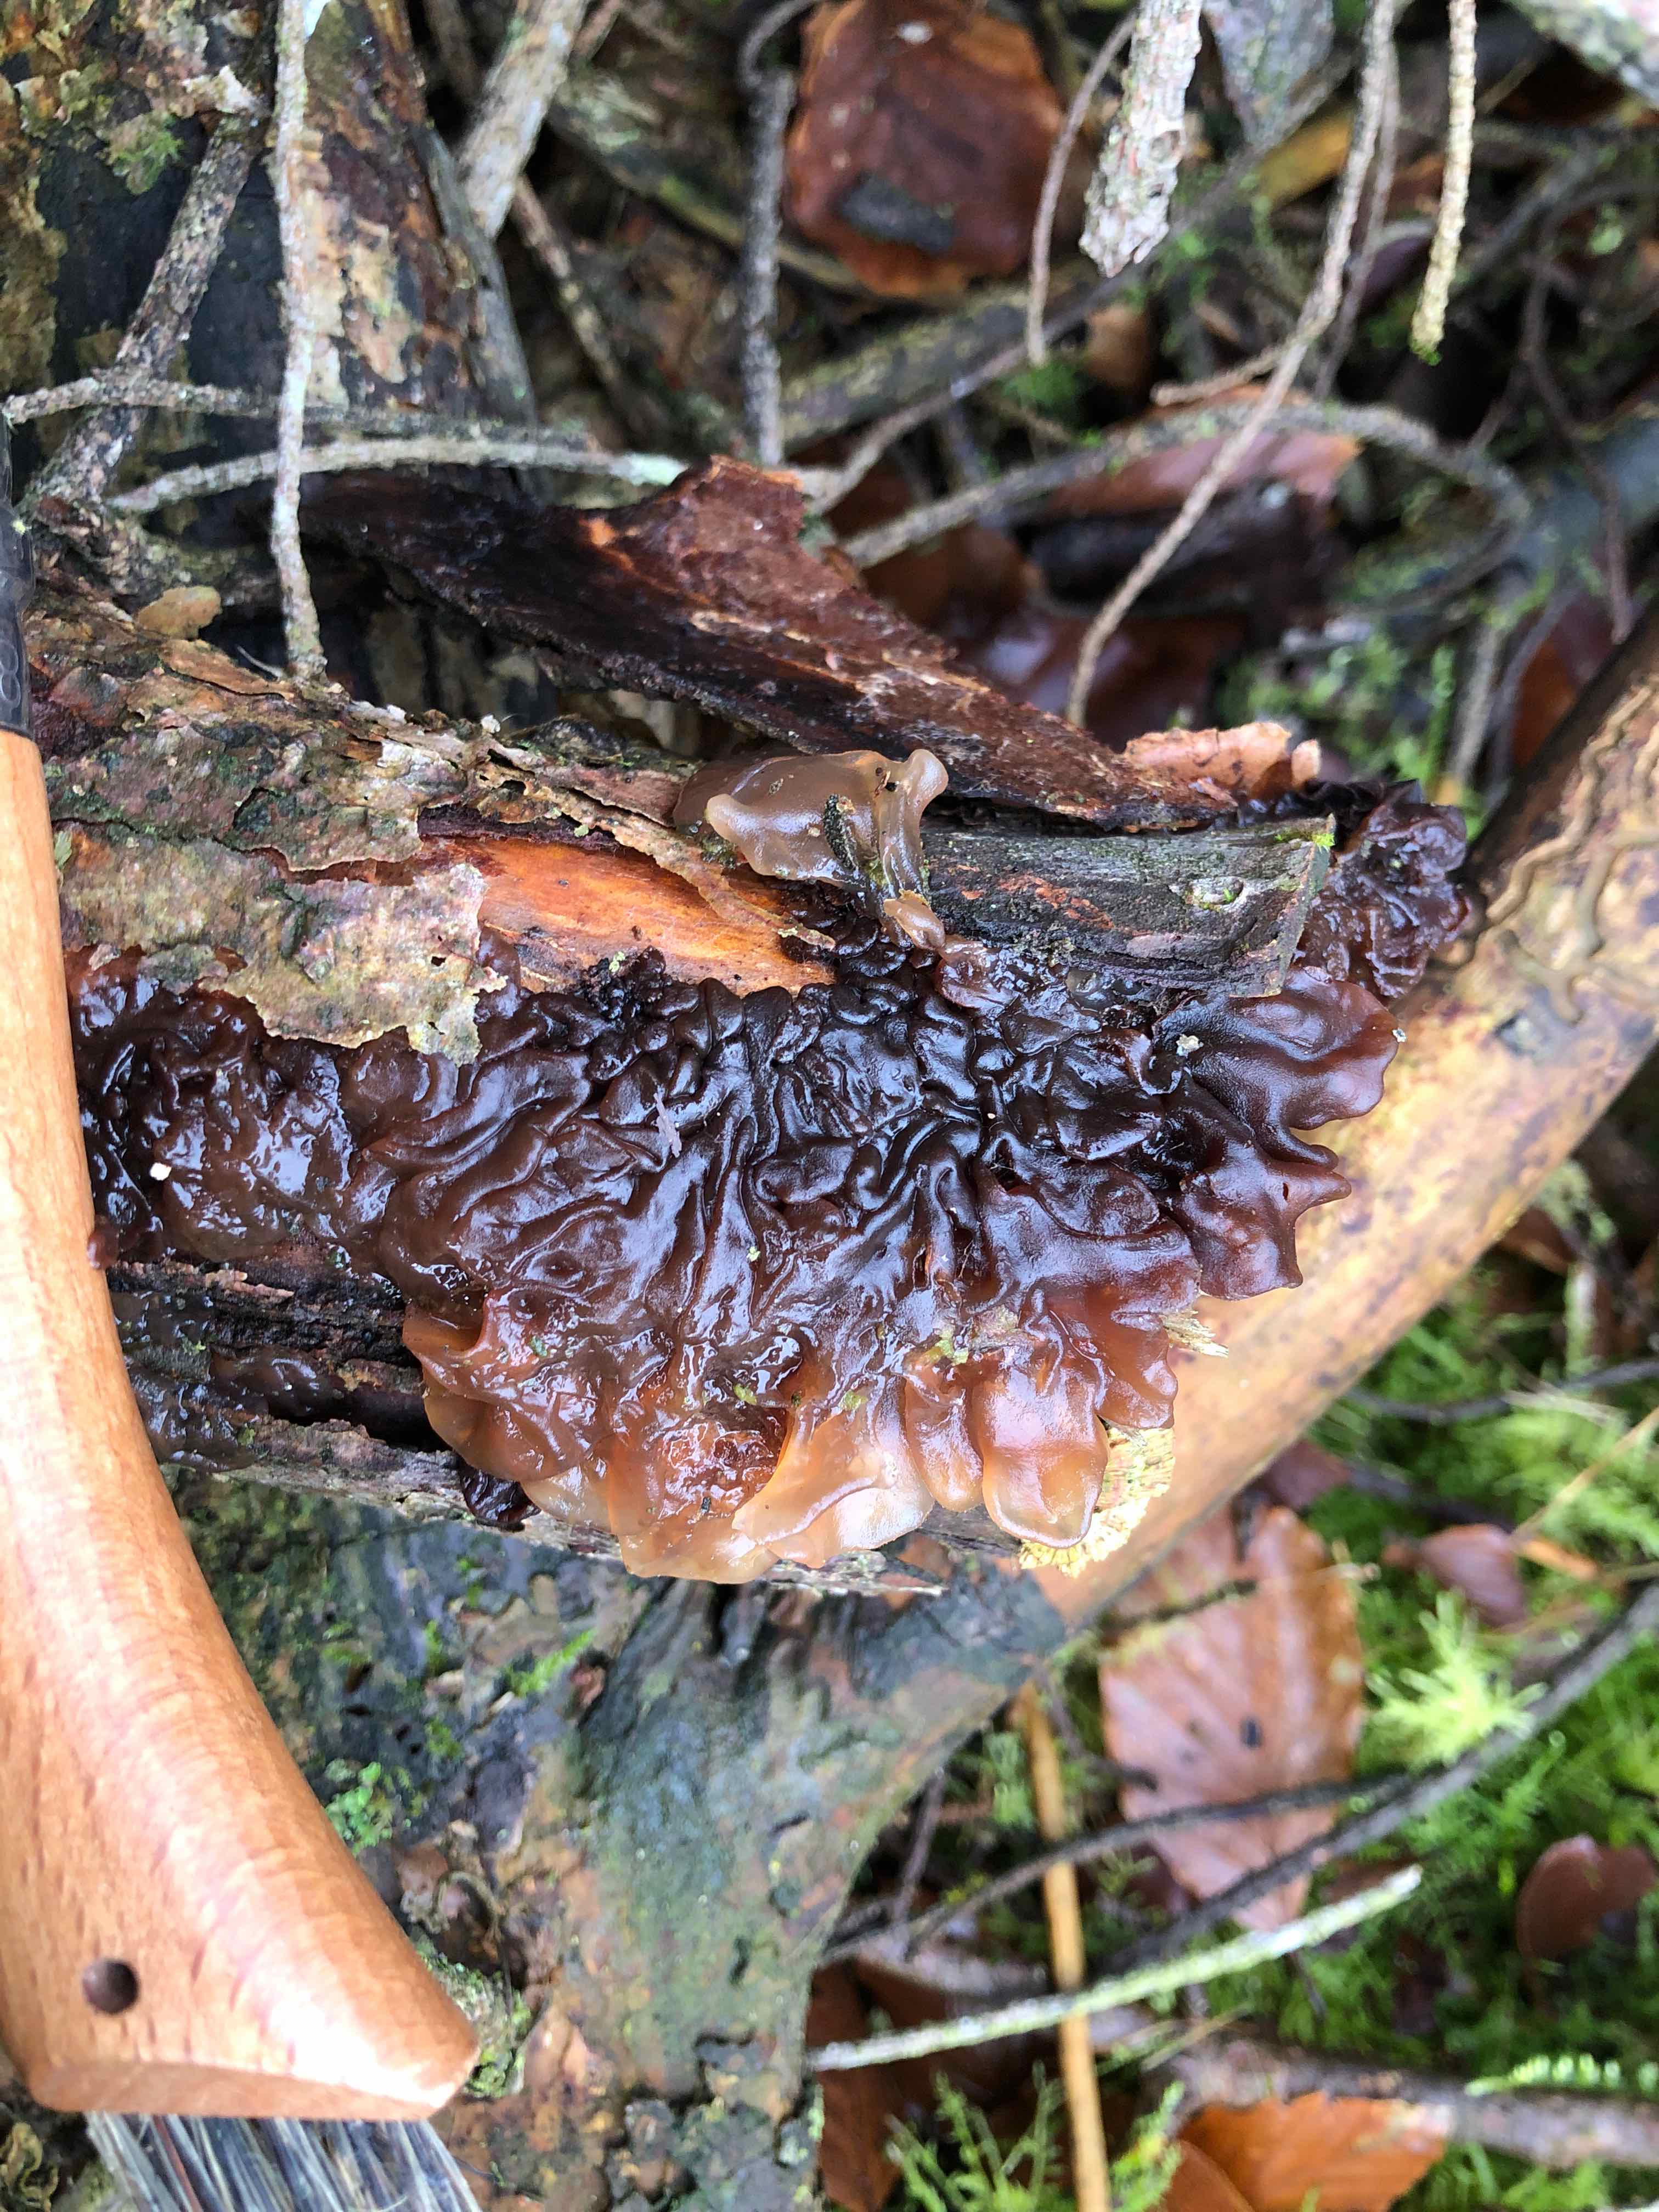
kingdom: Fungi
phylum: Basidiomycota
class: Tremellomycetes
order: Tremellales
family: Tremellaceae
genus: Phaeotremella
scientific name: Phaeotremella foliacea
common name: brun bævresvamp
